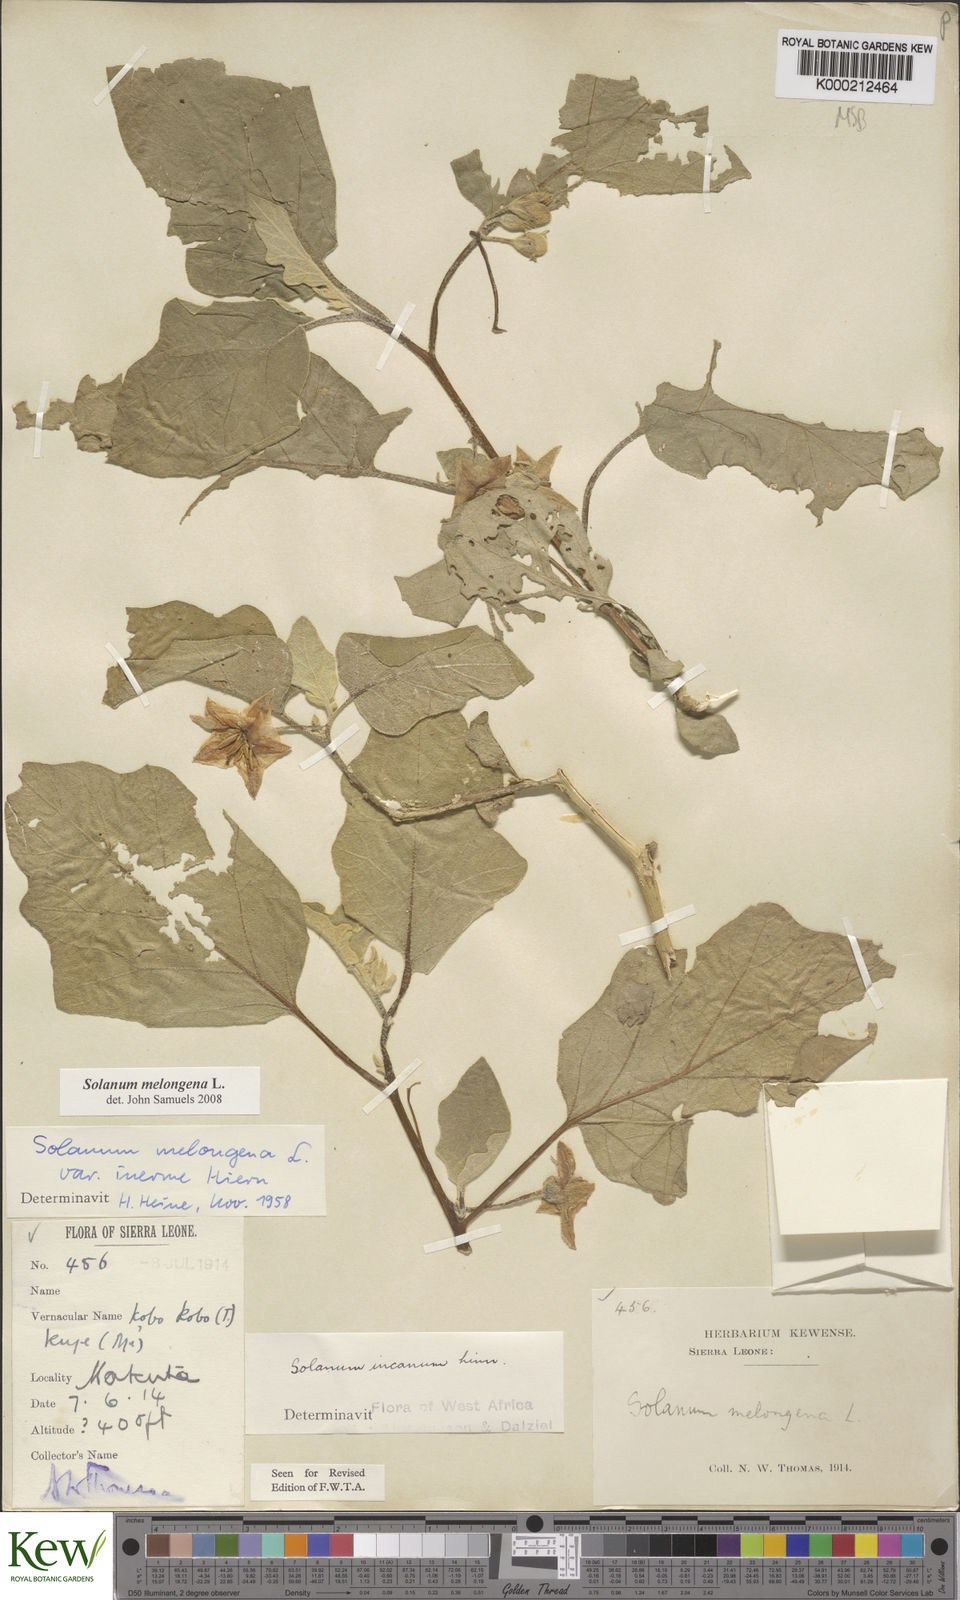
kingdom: Plantae
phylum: Tracheophyta
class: Magnoliopsida
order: Solanales
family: Solanaceae
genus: Solanum
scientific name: Solanum
